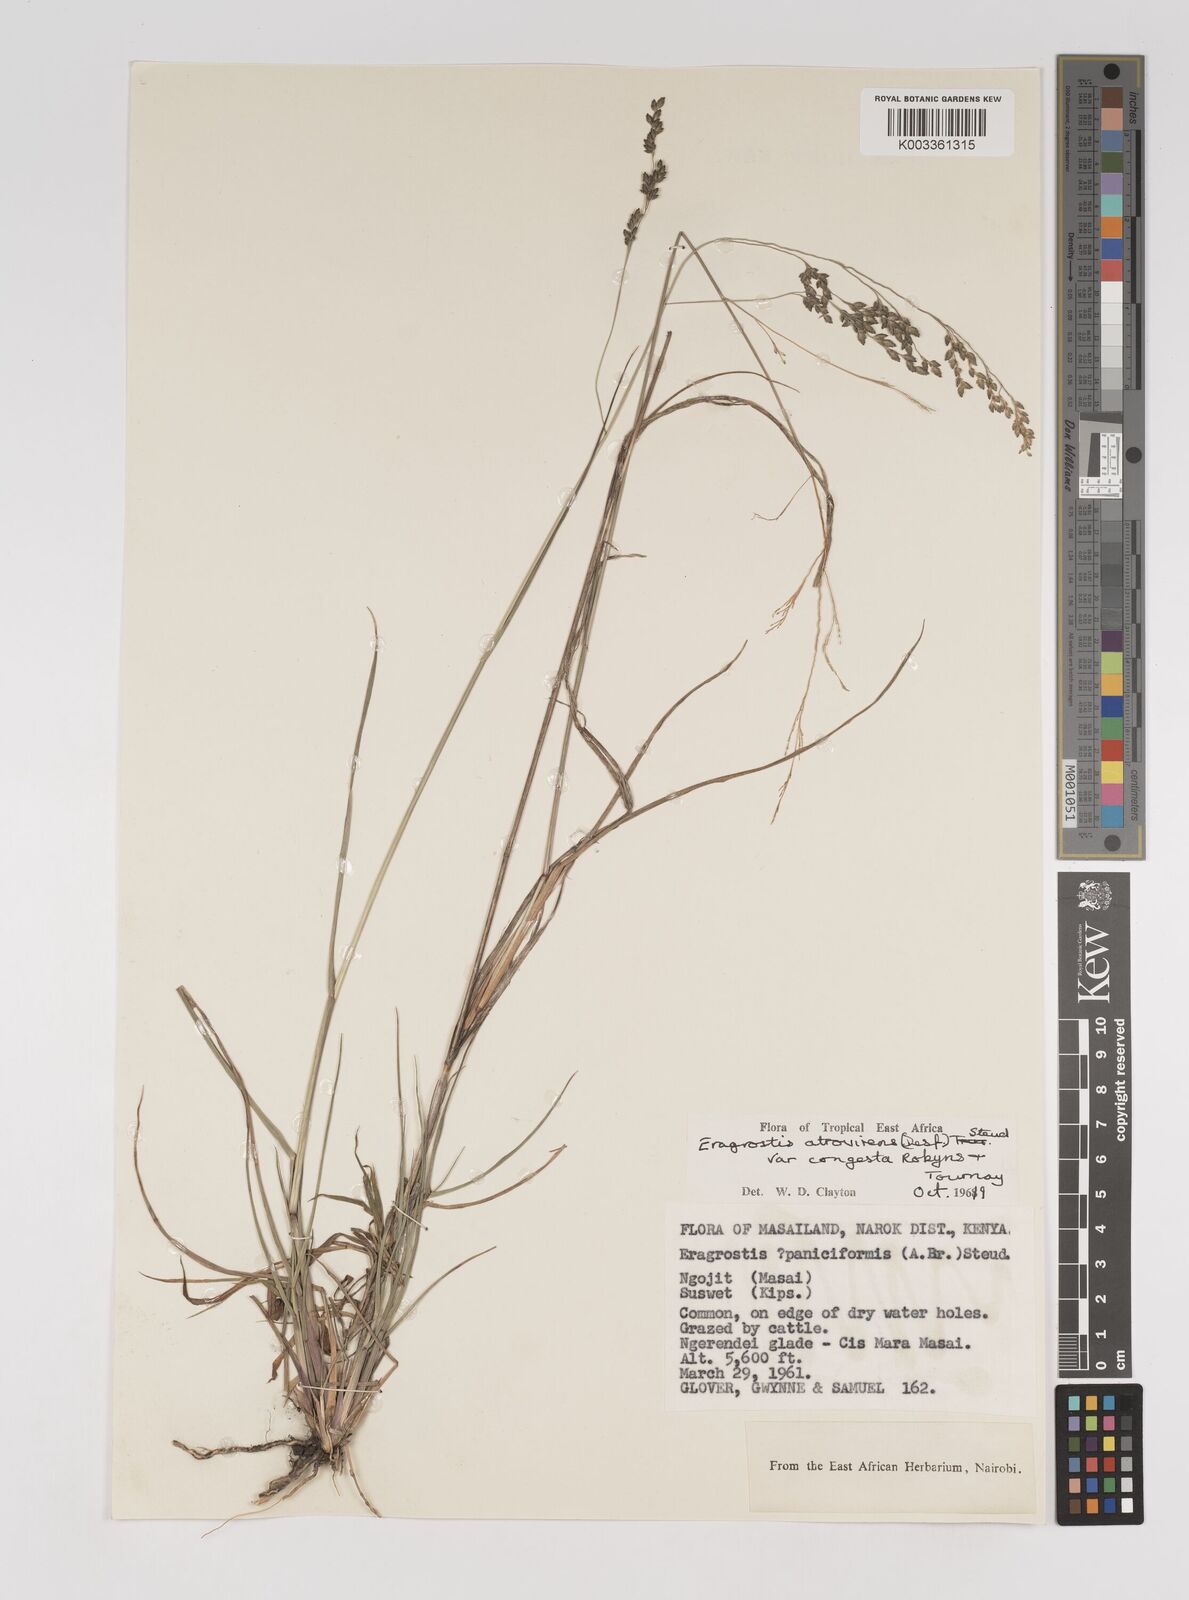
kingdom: Plantae
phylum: Tracheophyta
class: Liliopsida
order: Poales
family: Poaceae
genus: Eragrostis
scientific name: Eragrostis botryodes
